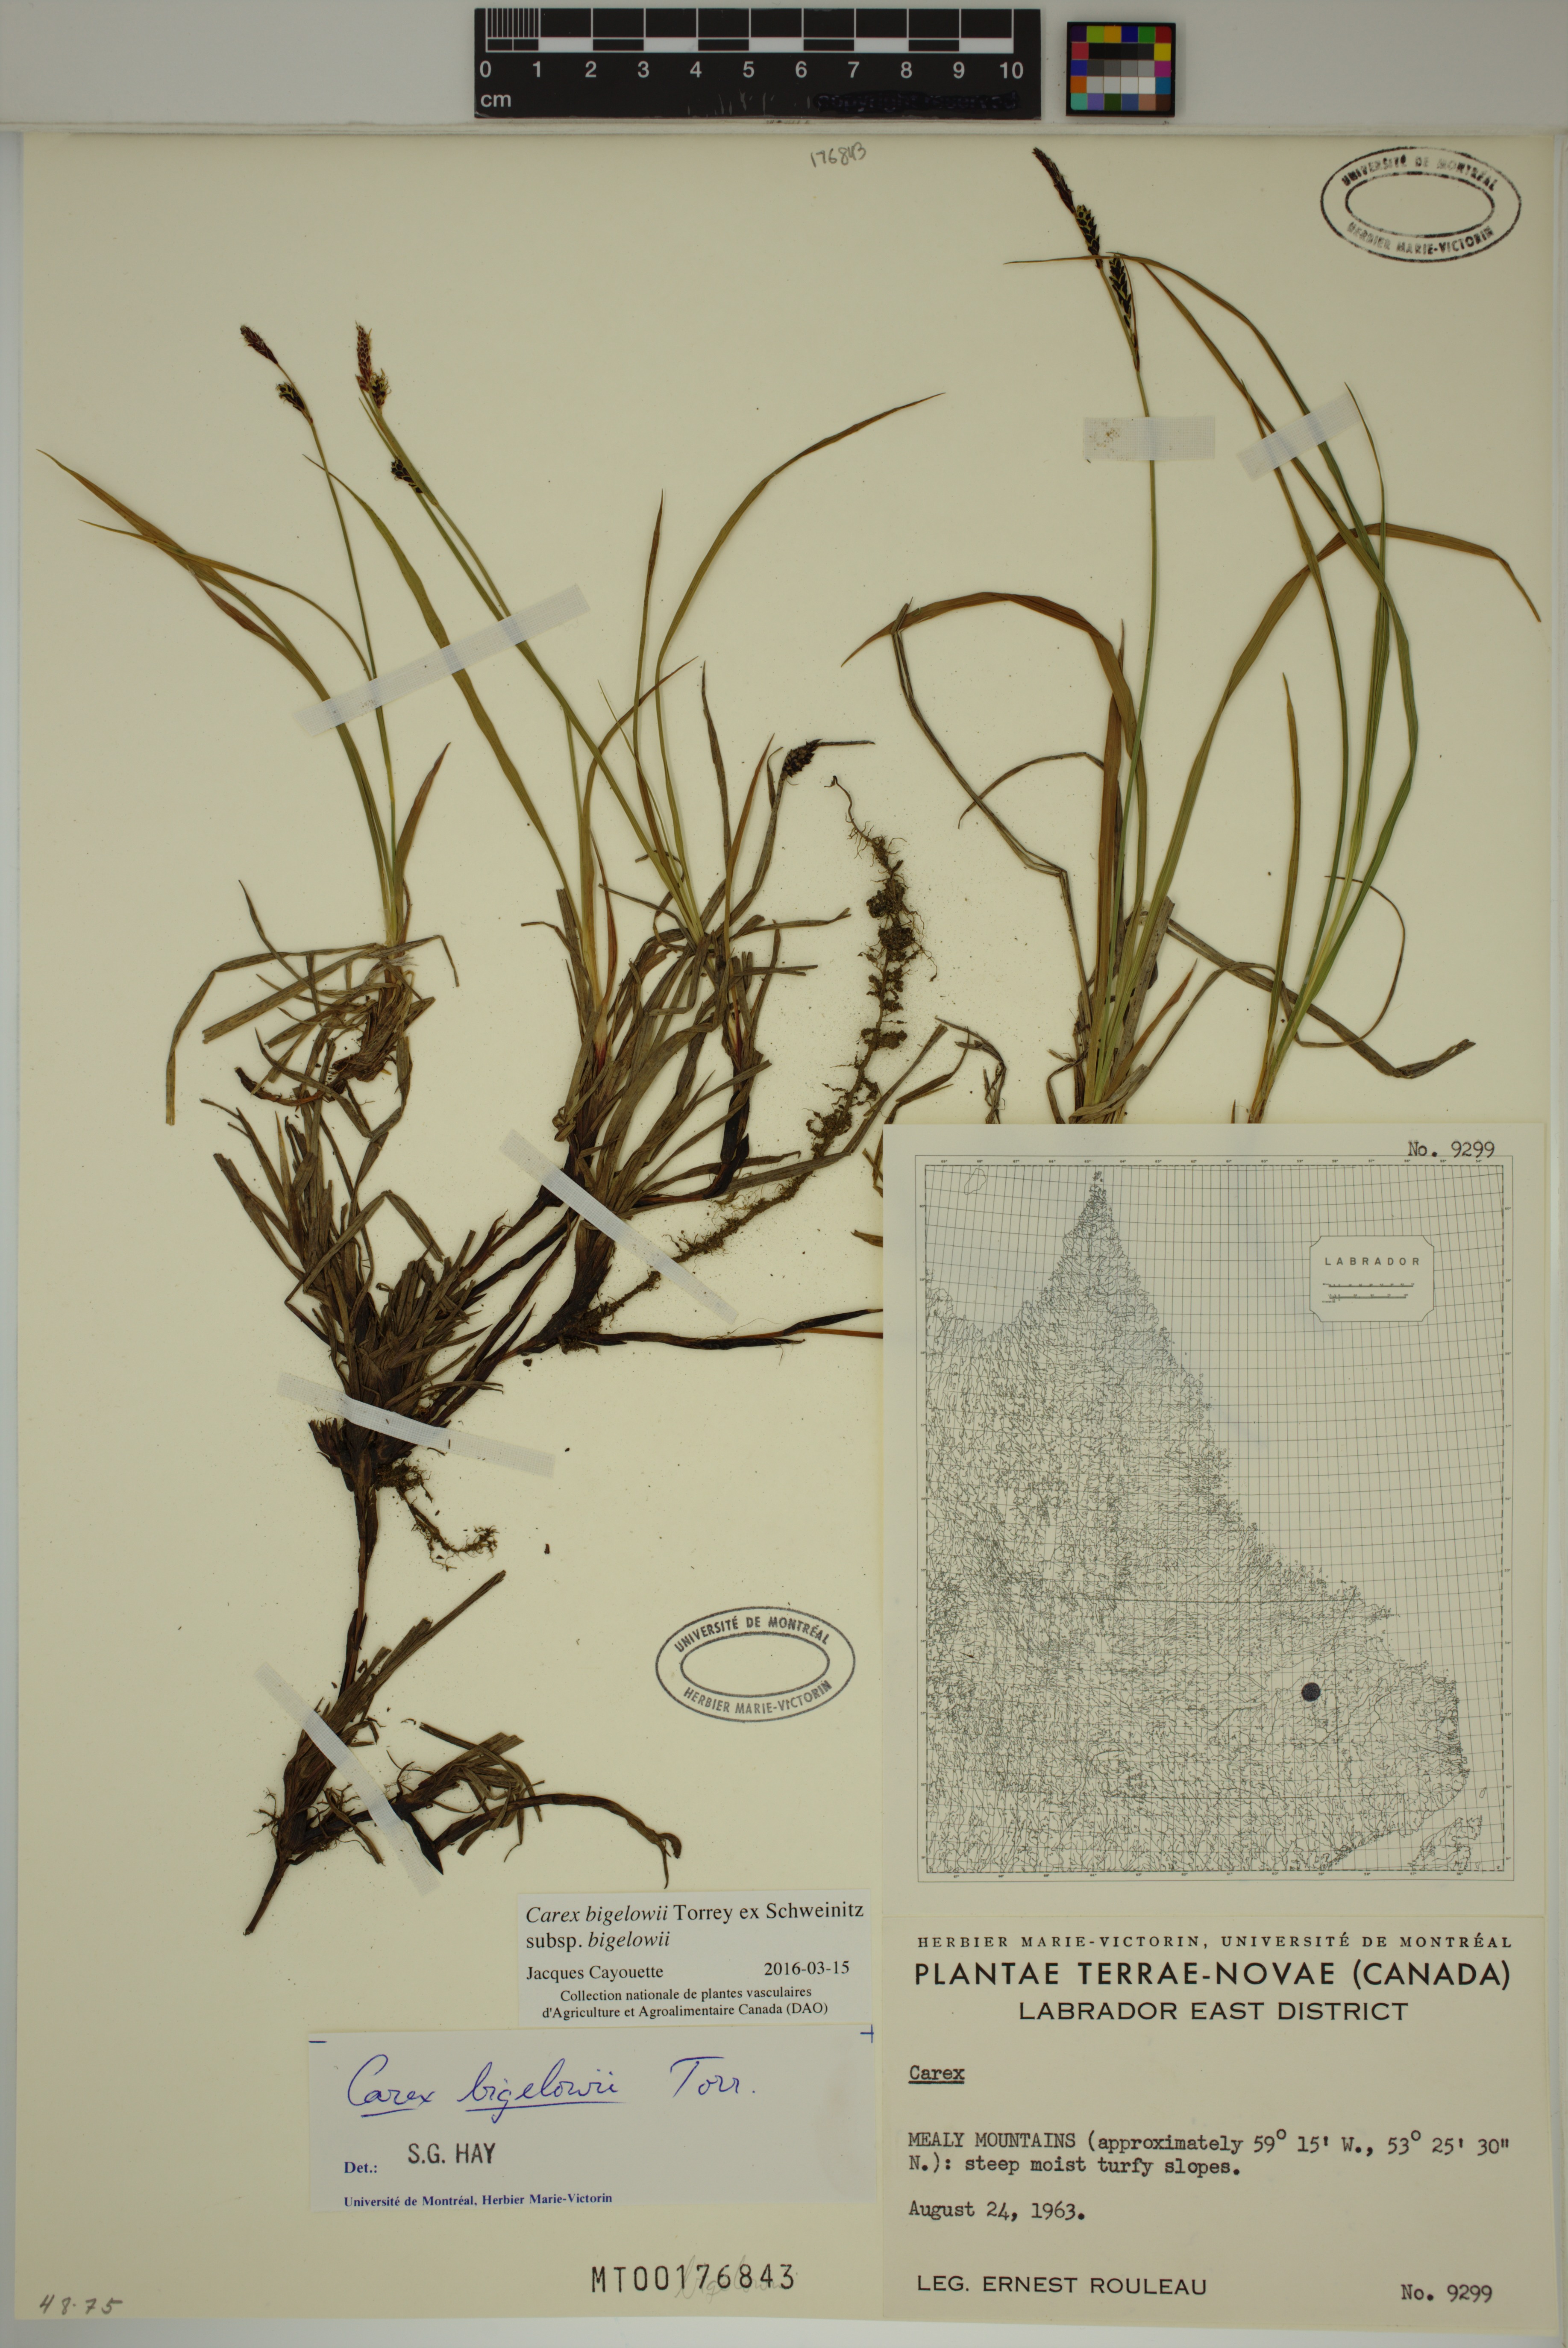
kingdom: Plantae
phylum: Tracheophyta
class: Liliopsida
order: Poales
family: Cyperaceae
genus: Carex
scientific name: Carex bigelowii
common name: Stiff sedge
